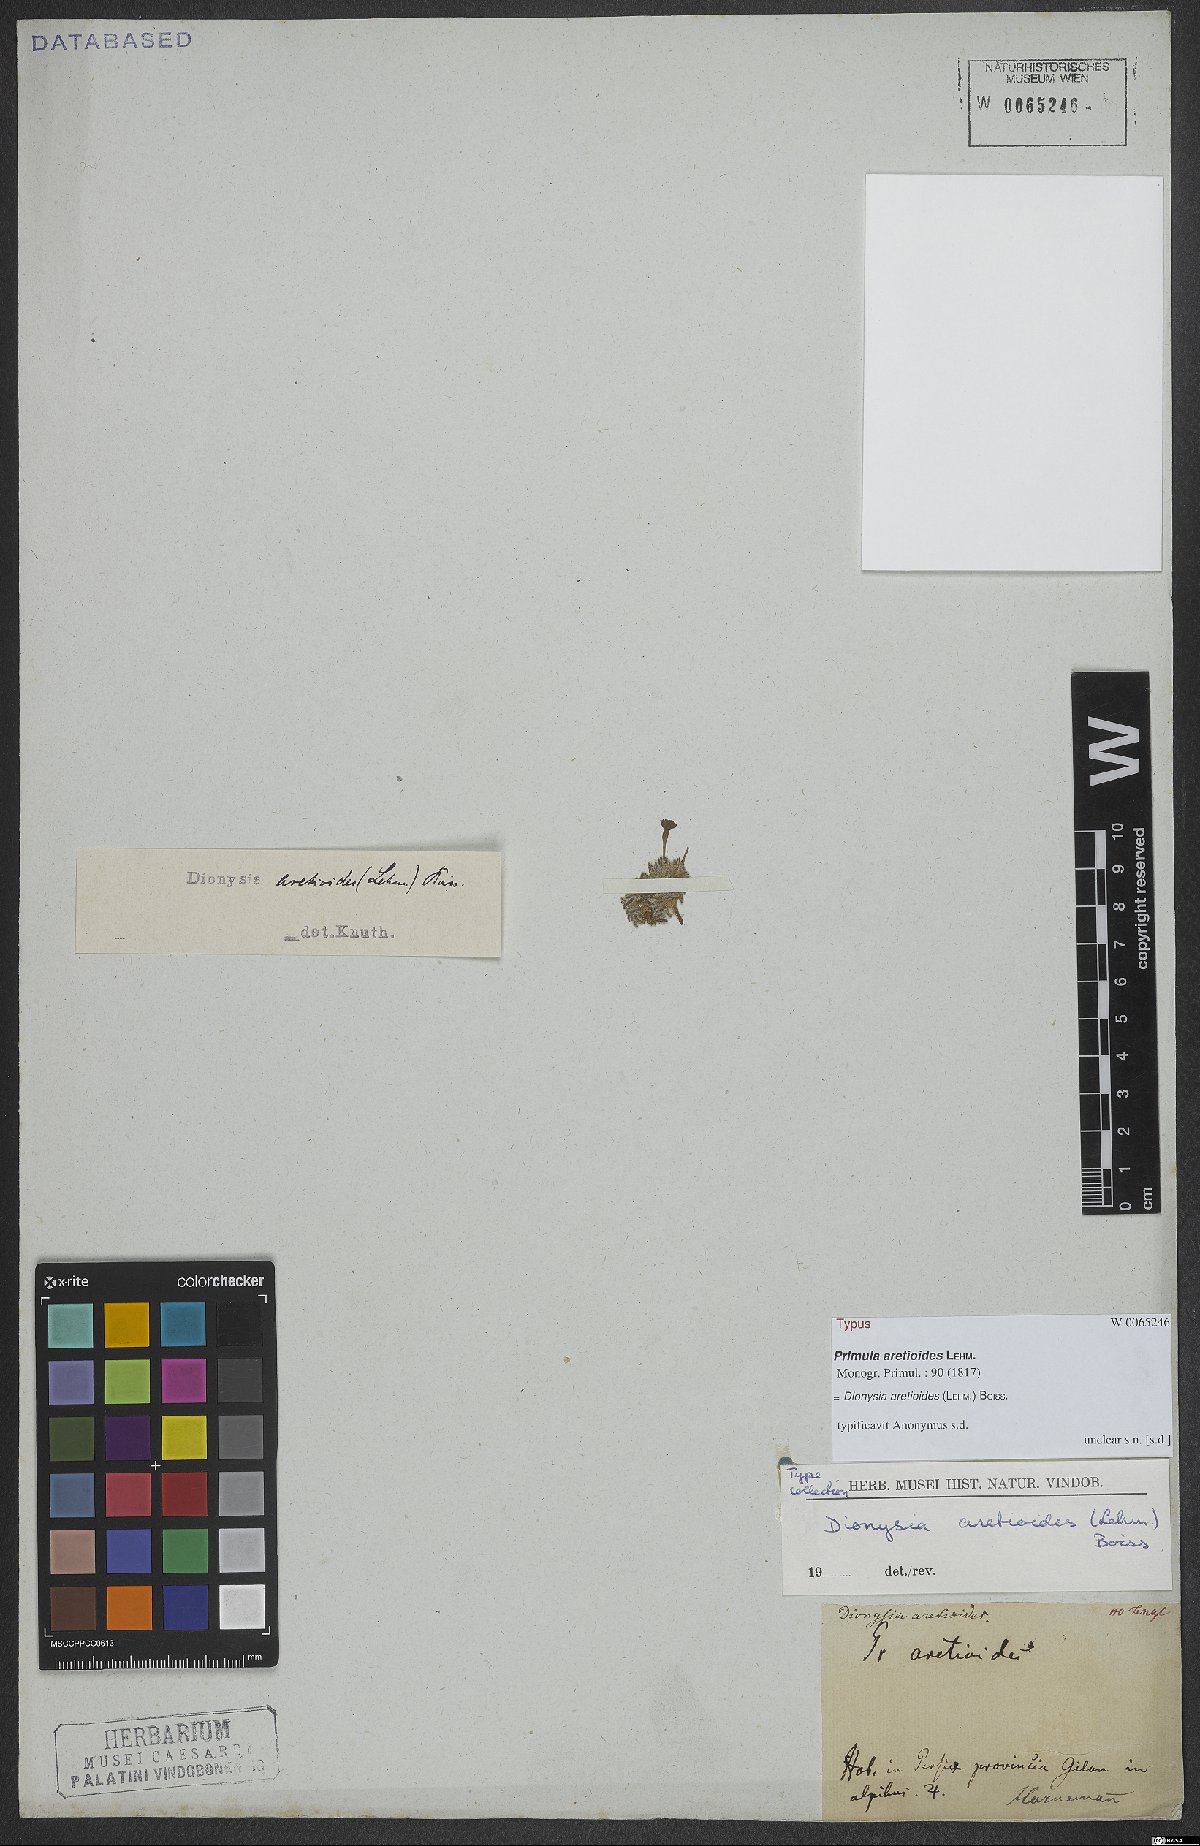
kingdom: Plantae
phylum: Tracheophyta
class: Magnoliopsida
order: Ericales
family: Primulaceae
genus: Dionysia
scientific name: Dionysia aretioides
